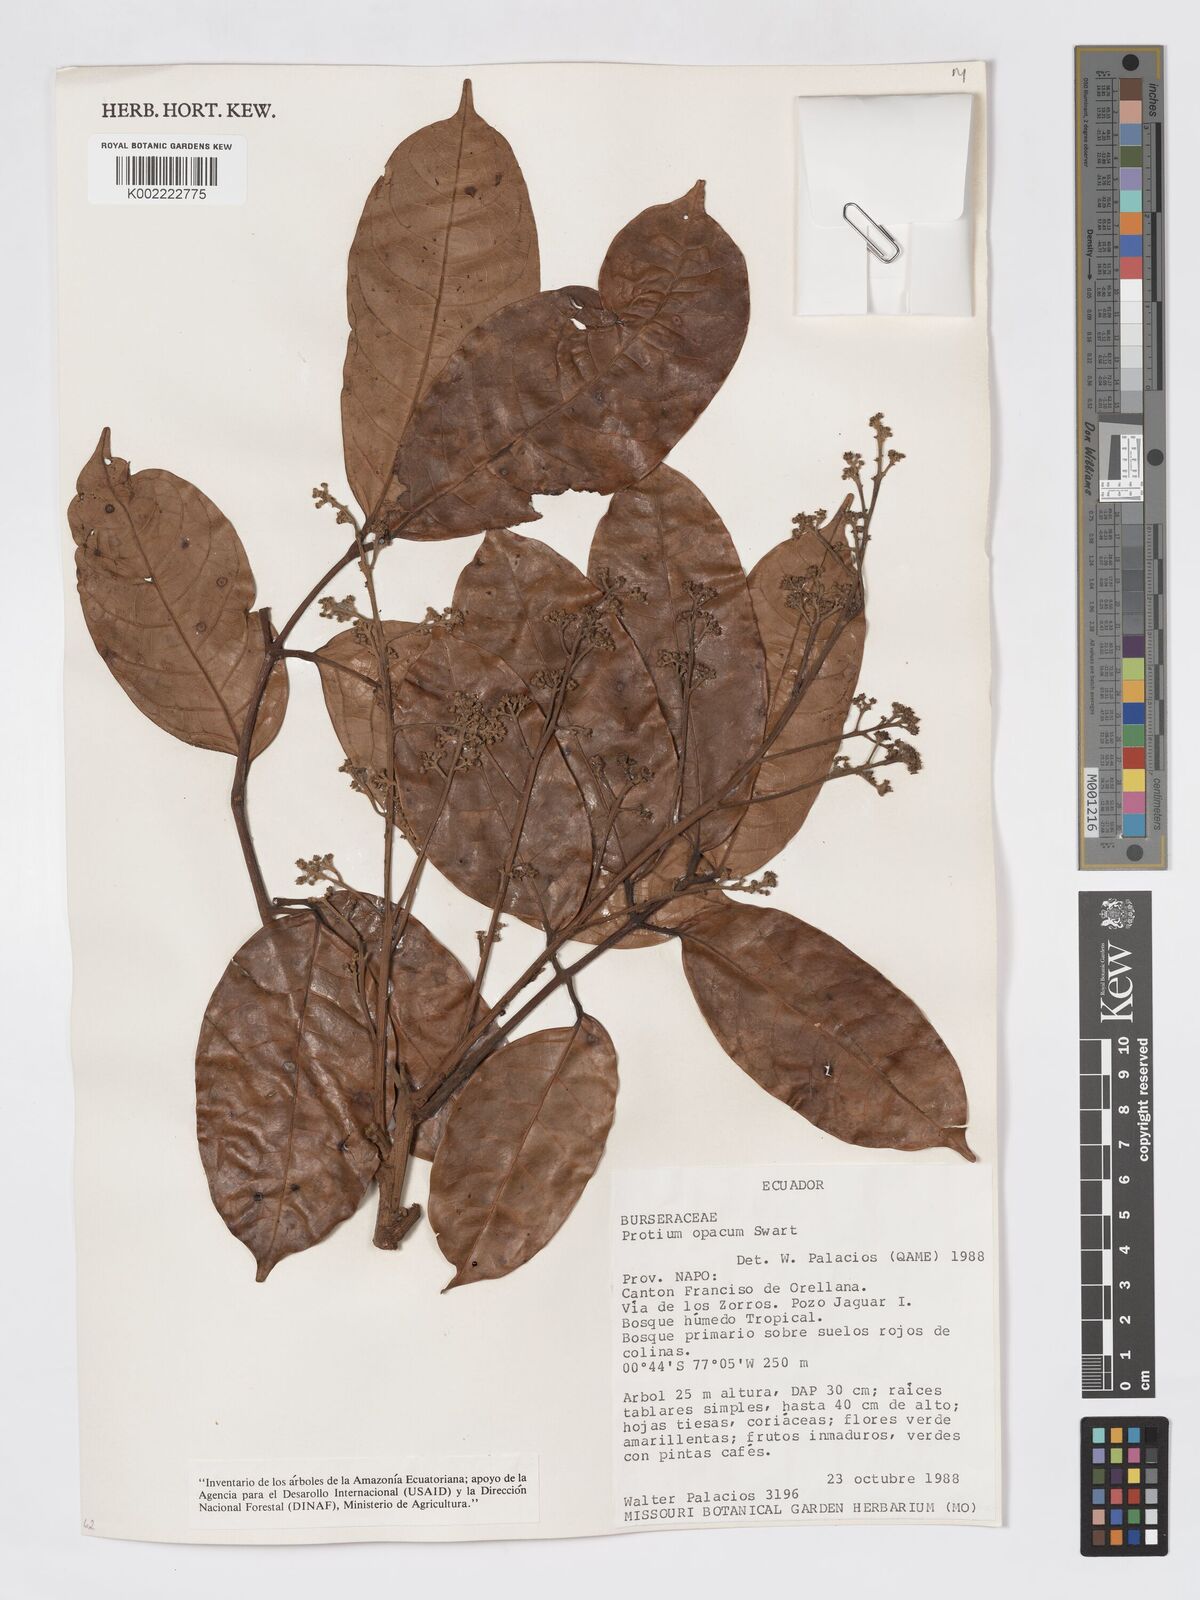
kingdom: Plantae
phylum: Tracheophyta
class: Magnoliopsida
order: Sapindales
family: Burseraceae
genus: Protium
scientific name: Protium opacum
